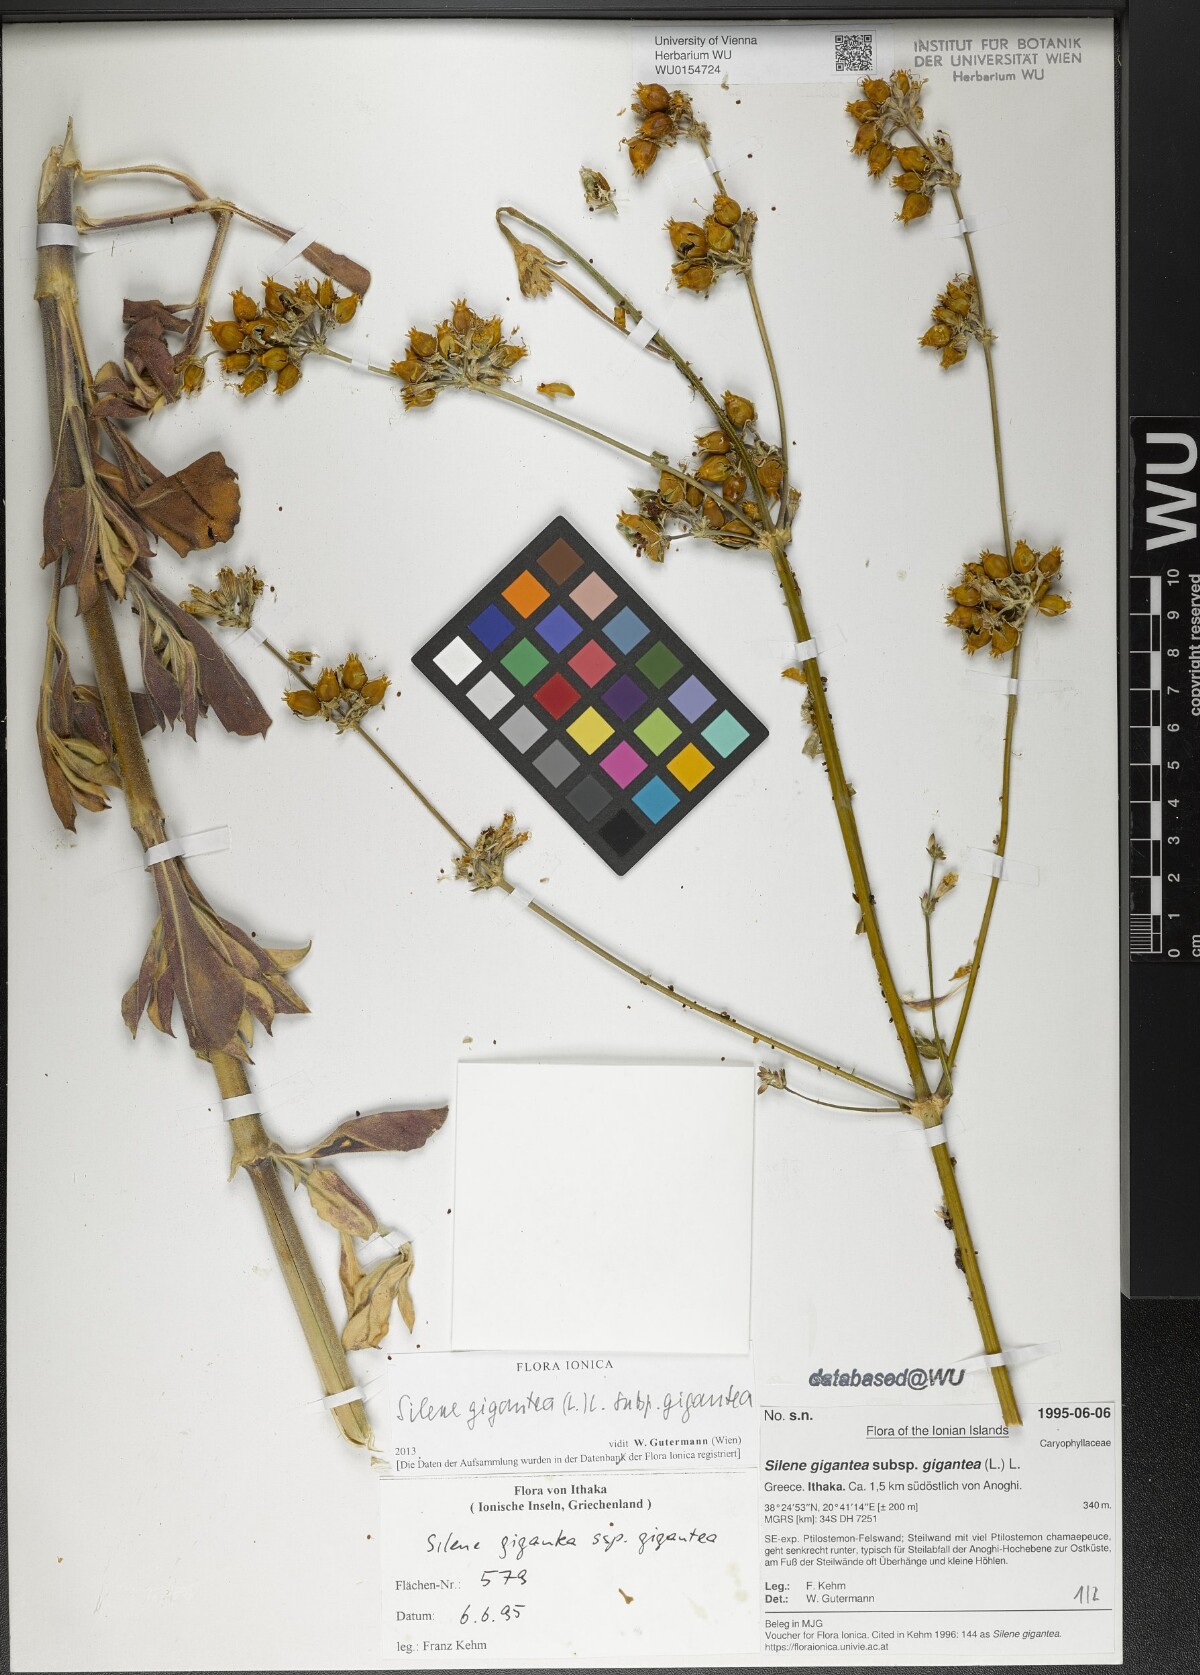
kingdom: Plantae
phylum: Tracheophyta
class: Magnoliopsida
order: Caryophyllales
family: Caryophyllaceae
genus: Silene
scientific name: Silene gigantea
